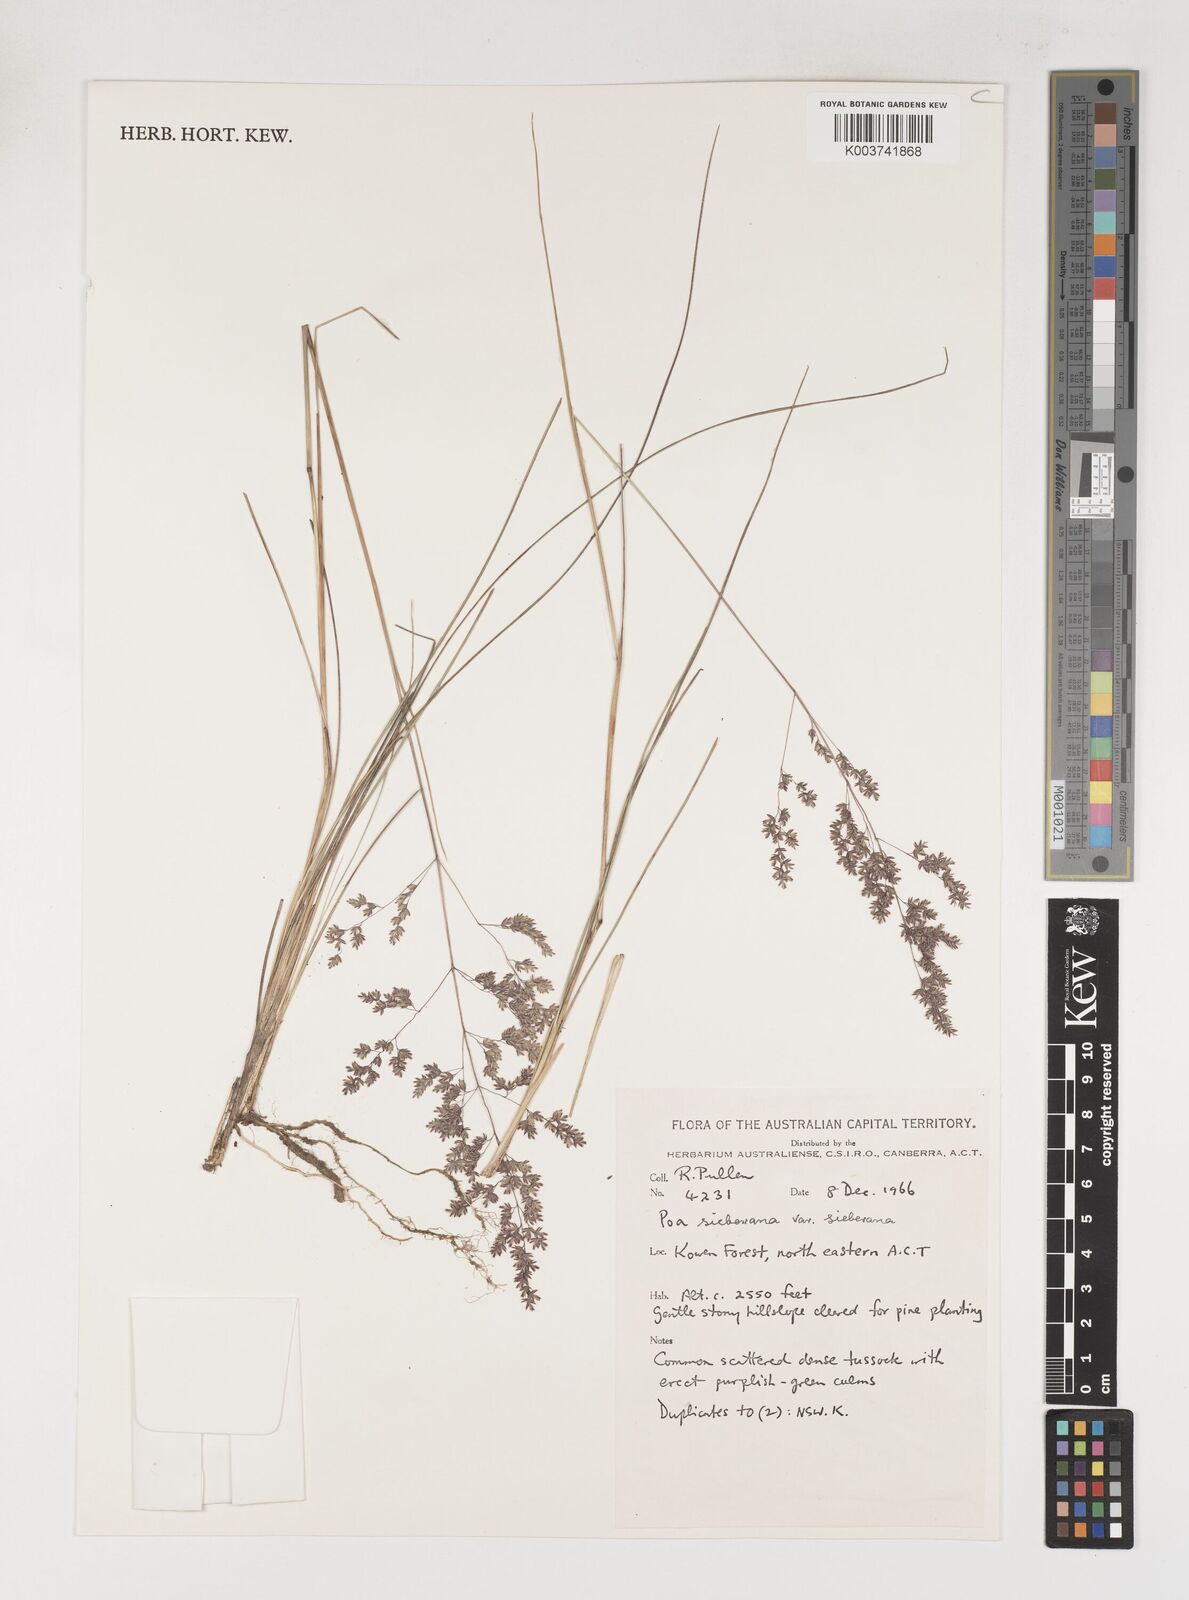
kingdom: Plantae
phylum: Tracheophyta
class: Liliopsida
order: Poales
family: Poaceae
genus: Poa
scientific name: Poa sieberiana
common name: Tussock poa
